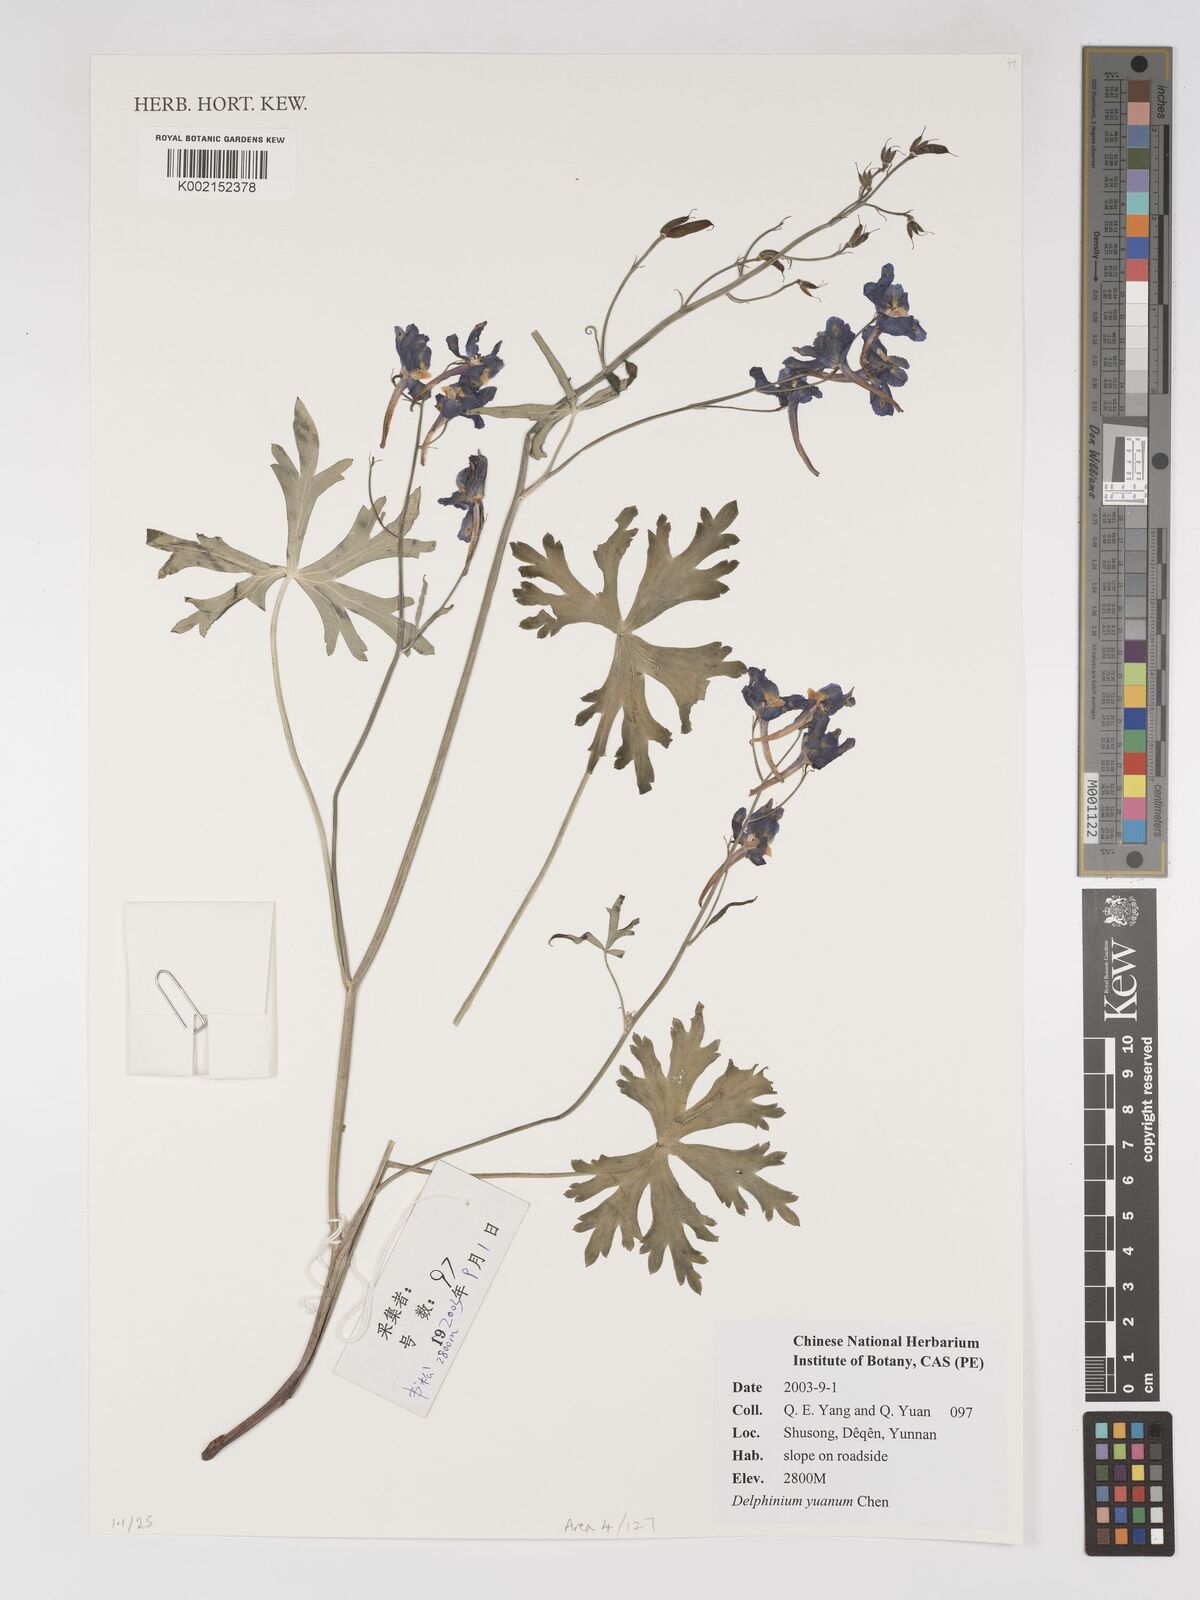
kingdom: Plantae
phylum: Tracheophyta
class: Magnoliopsida
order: Ranunculales
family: Ranunculaceae
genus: Delphinium
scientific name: Delphinium yuanum
